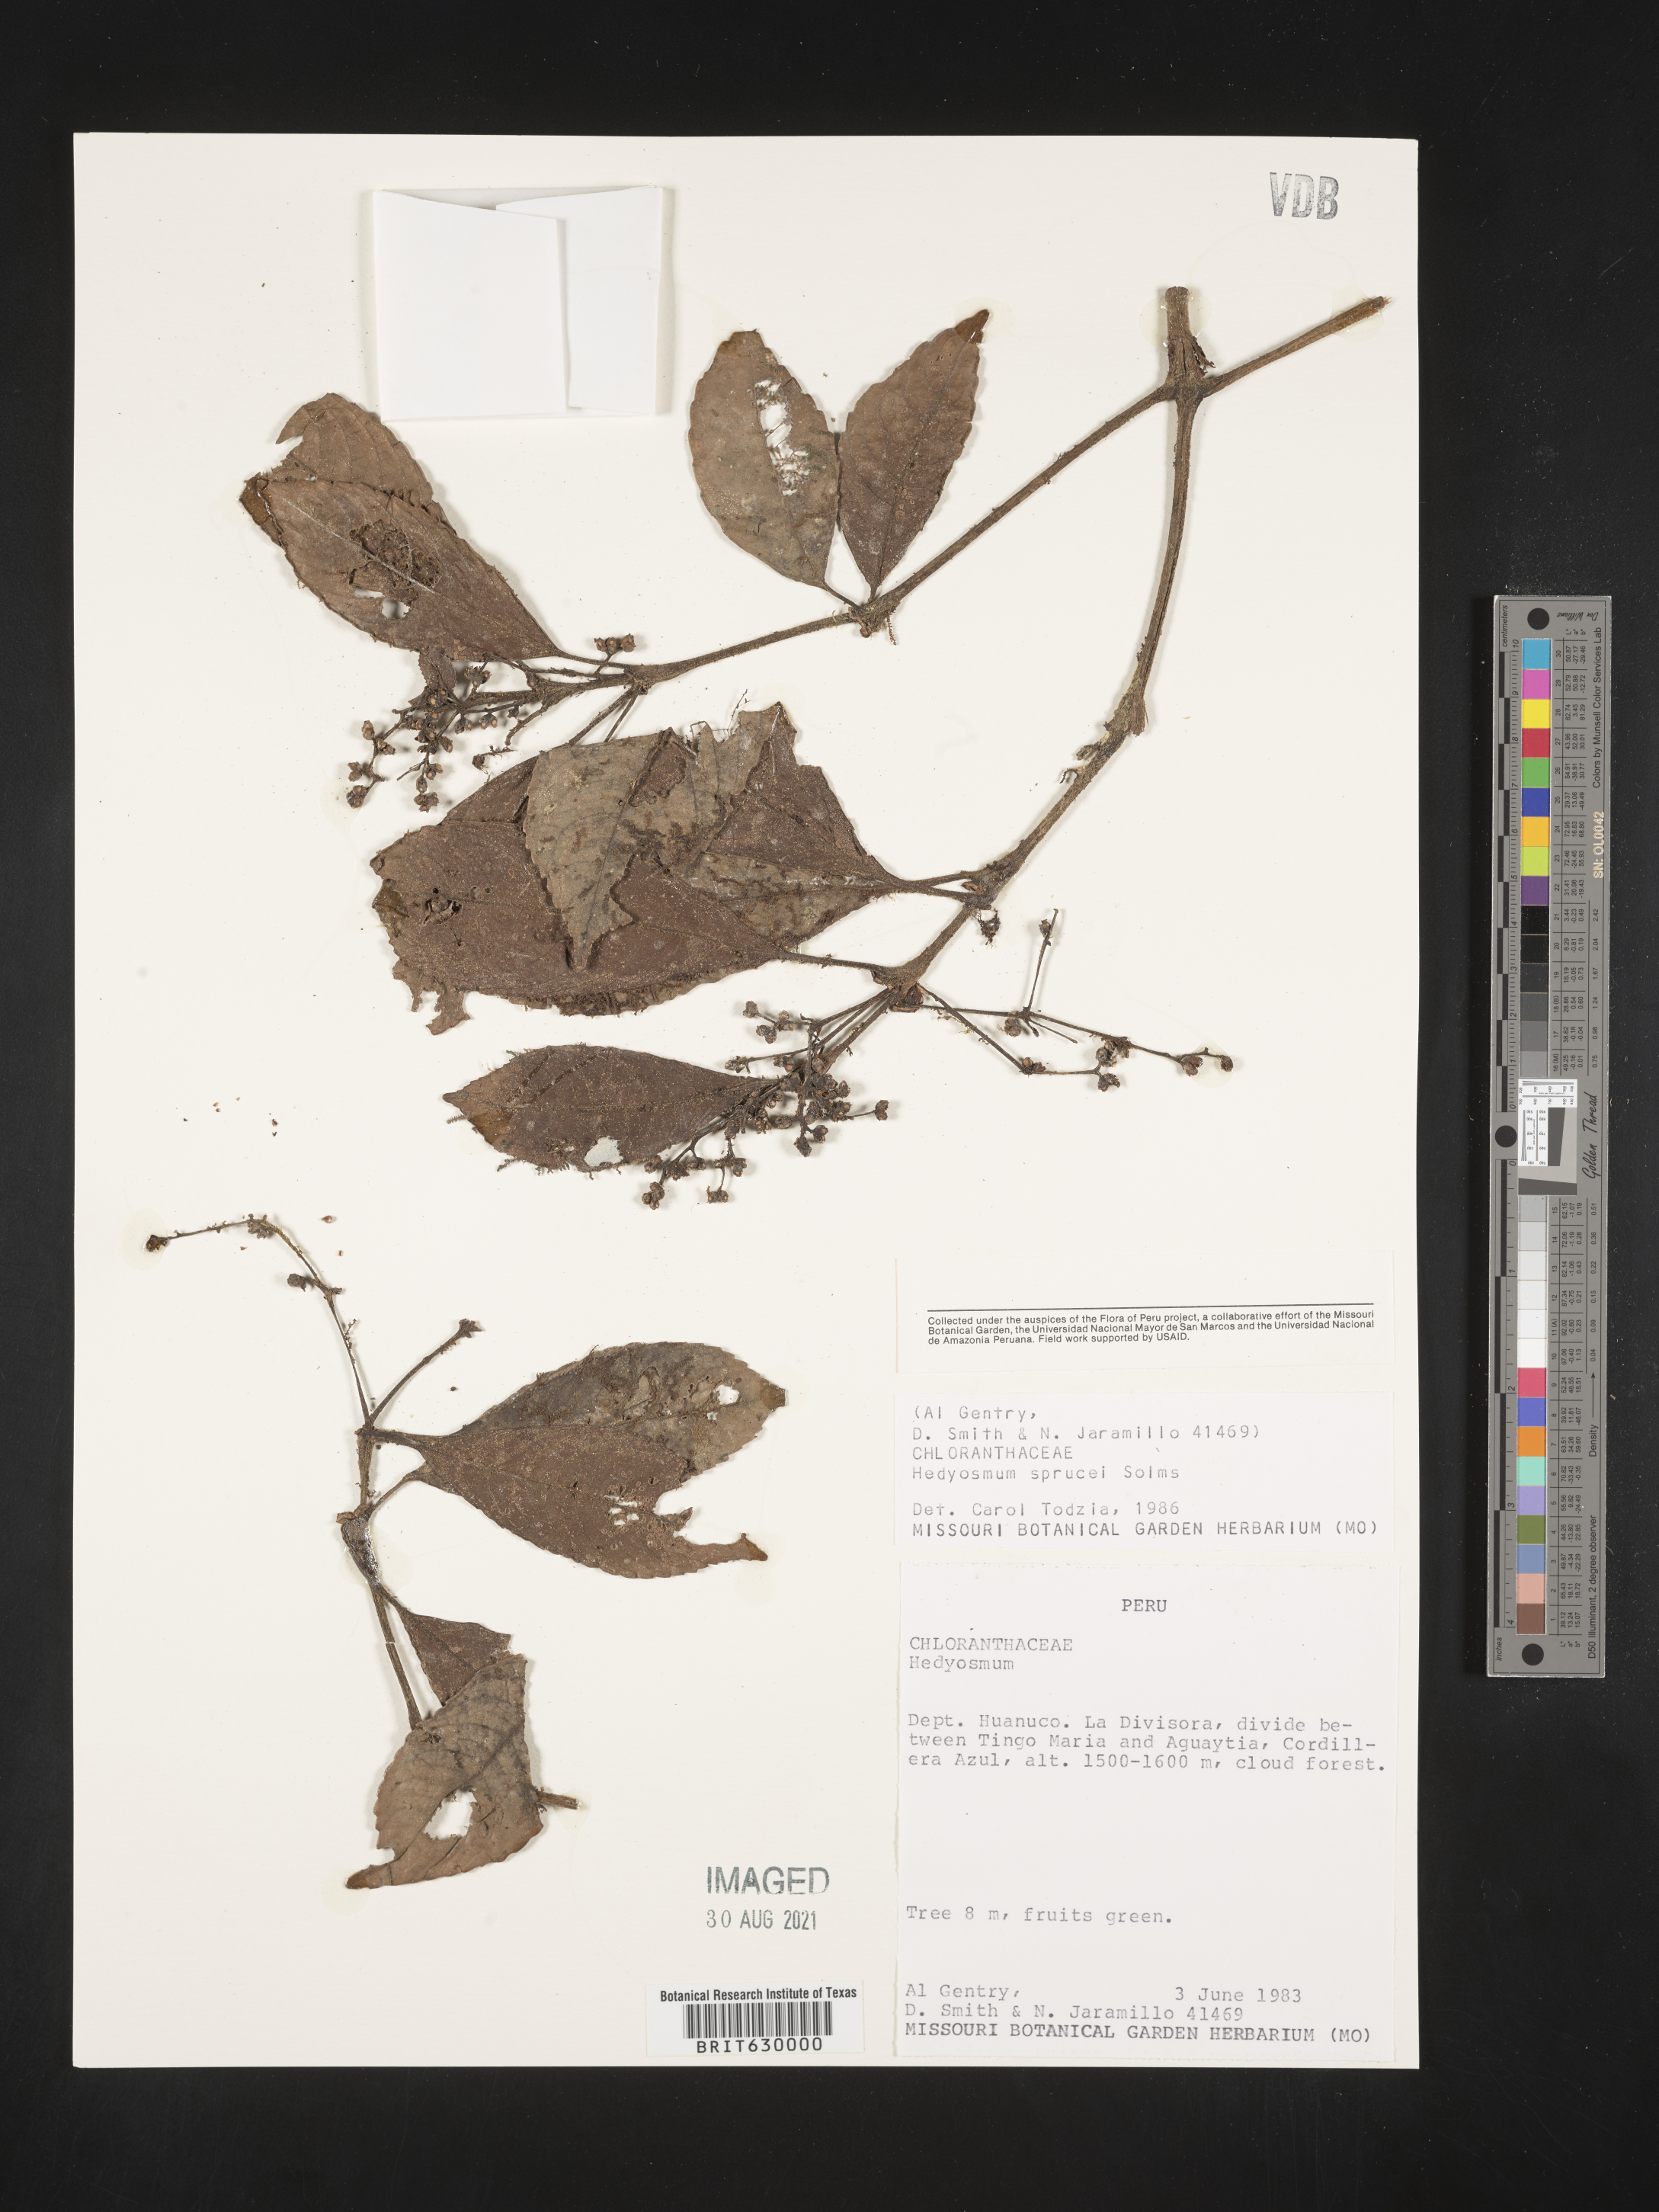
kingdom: Plantae
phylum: Tracheophyta
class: Magnoliopsida
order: Chloranthales
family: Chloranthaceae
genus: Hedyosmum
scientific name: Hedyosmum sprucei
